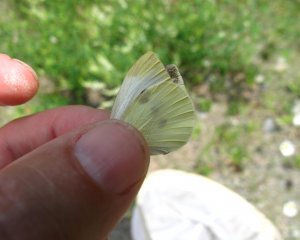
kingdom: Animalia
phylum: Arthropoda
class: Insecta
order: Lepidoptera
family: Pieridae
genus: Pieris
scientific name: Pieris rapae
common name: Cabbage White
